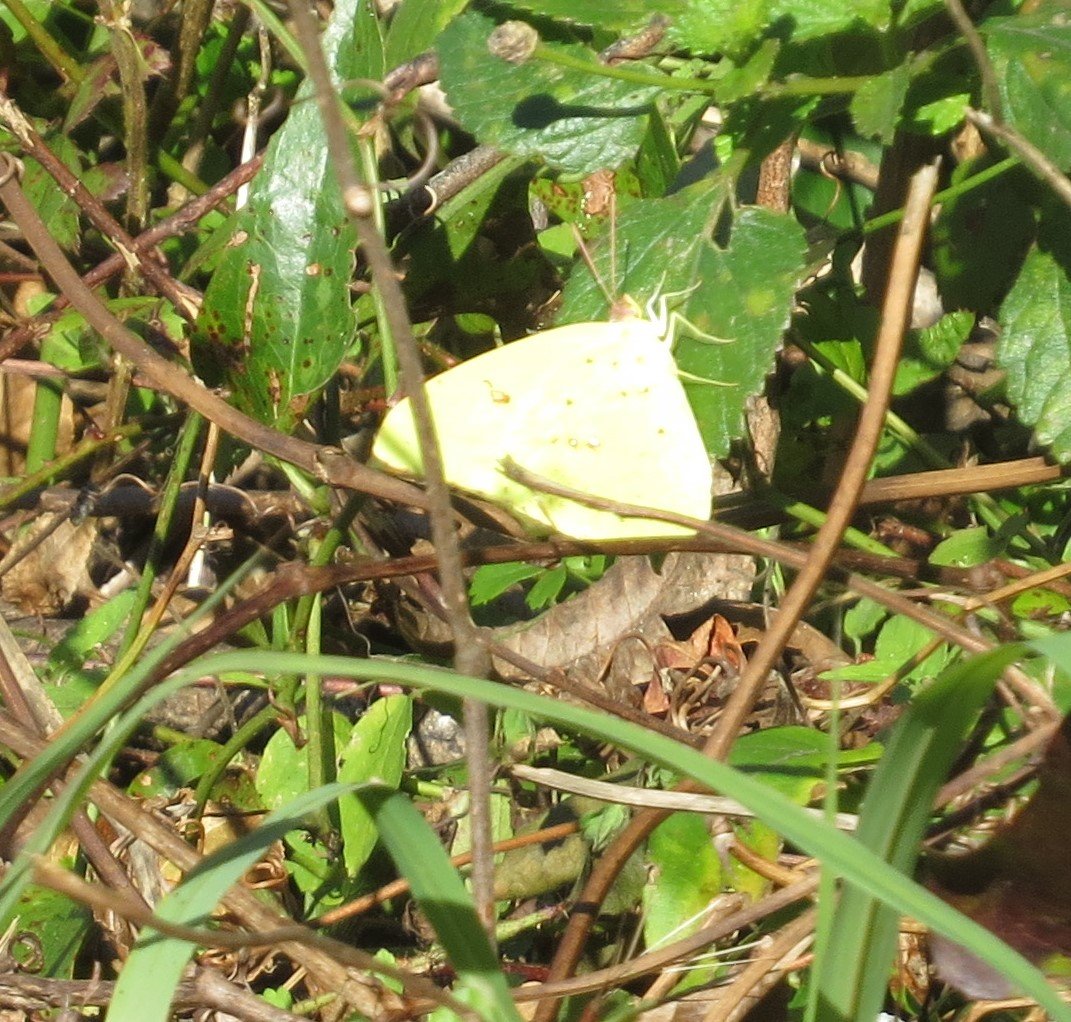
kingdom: Animalia
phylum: Arthropoda
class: Insecta
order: Lepidoptera
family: Pieridae
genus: Phoebis
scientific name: Phoebis sennae
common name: Cloudless Sulphur
